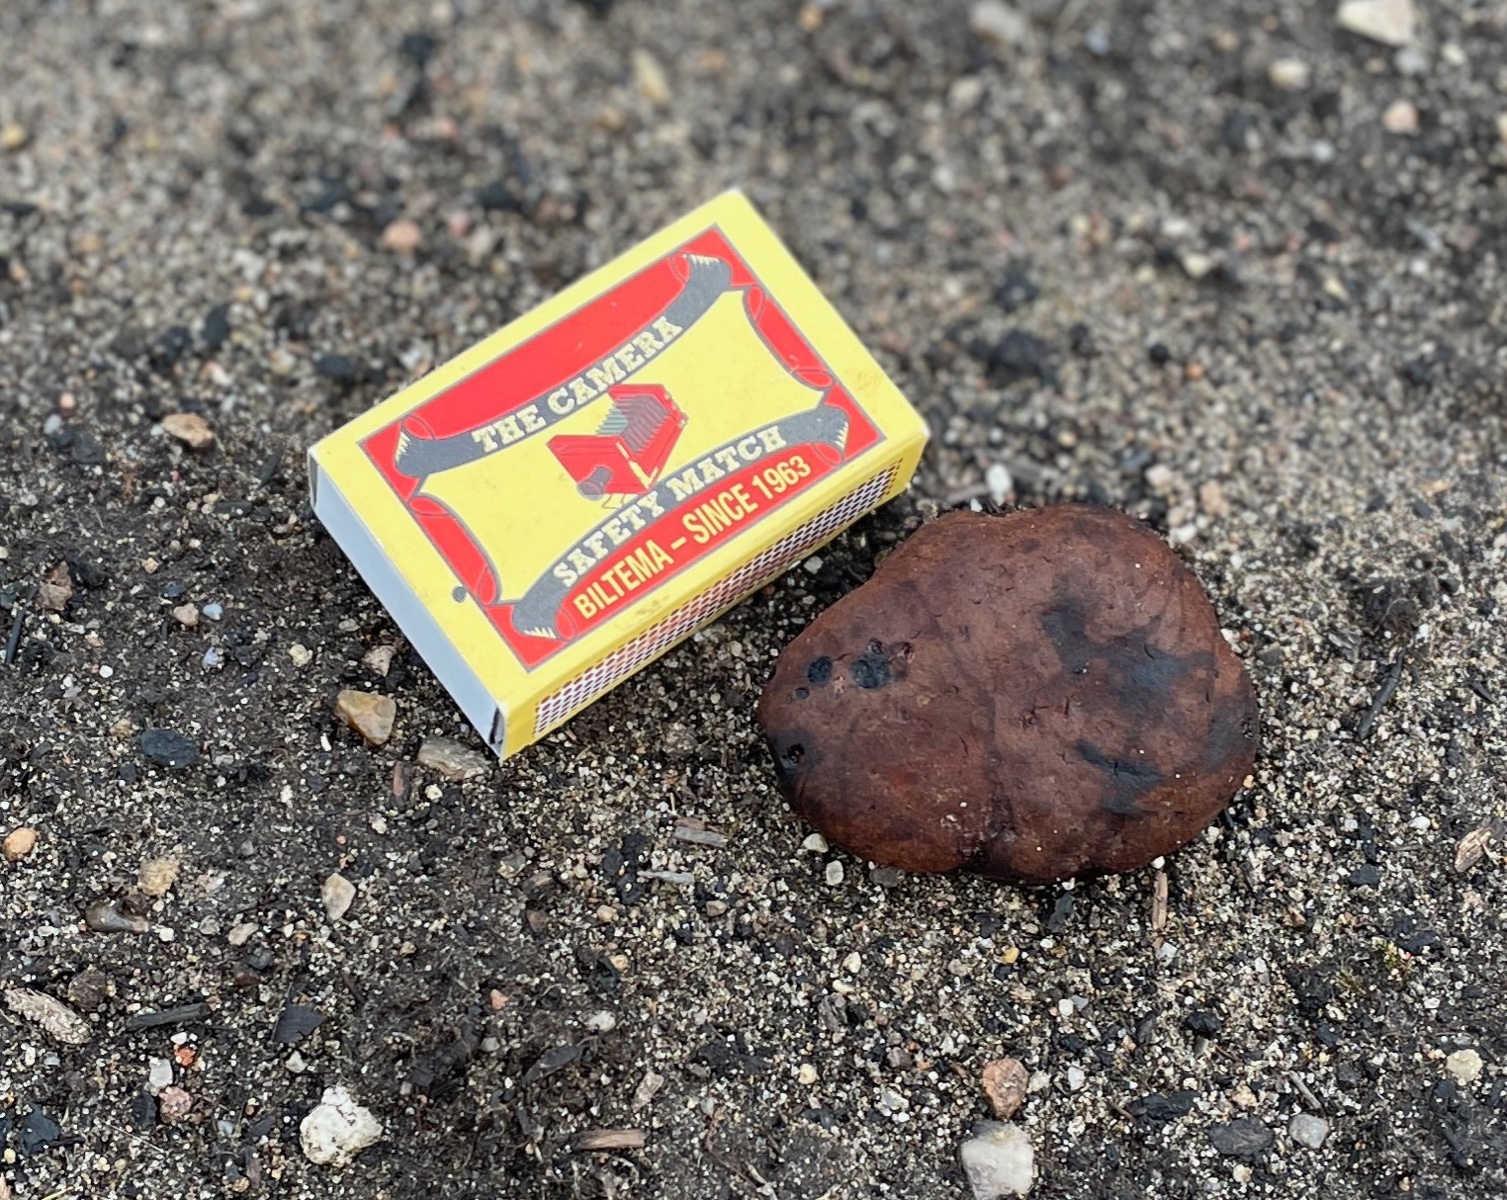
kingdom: Fungi
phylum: Basidiomycota
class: Agaricomycetes
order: Boletales
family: Paxillaceae
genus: Melanogaster
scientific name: Melanogaster
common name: slimtrøffel
